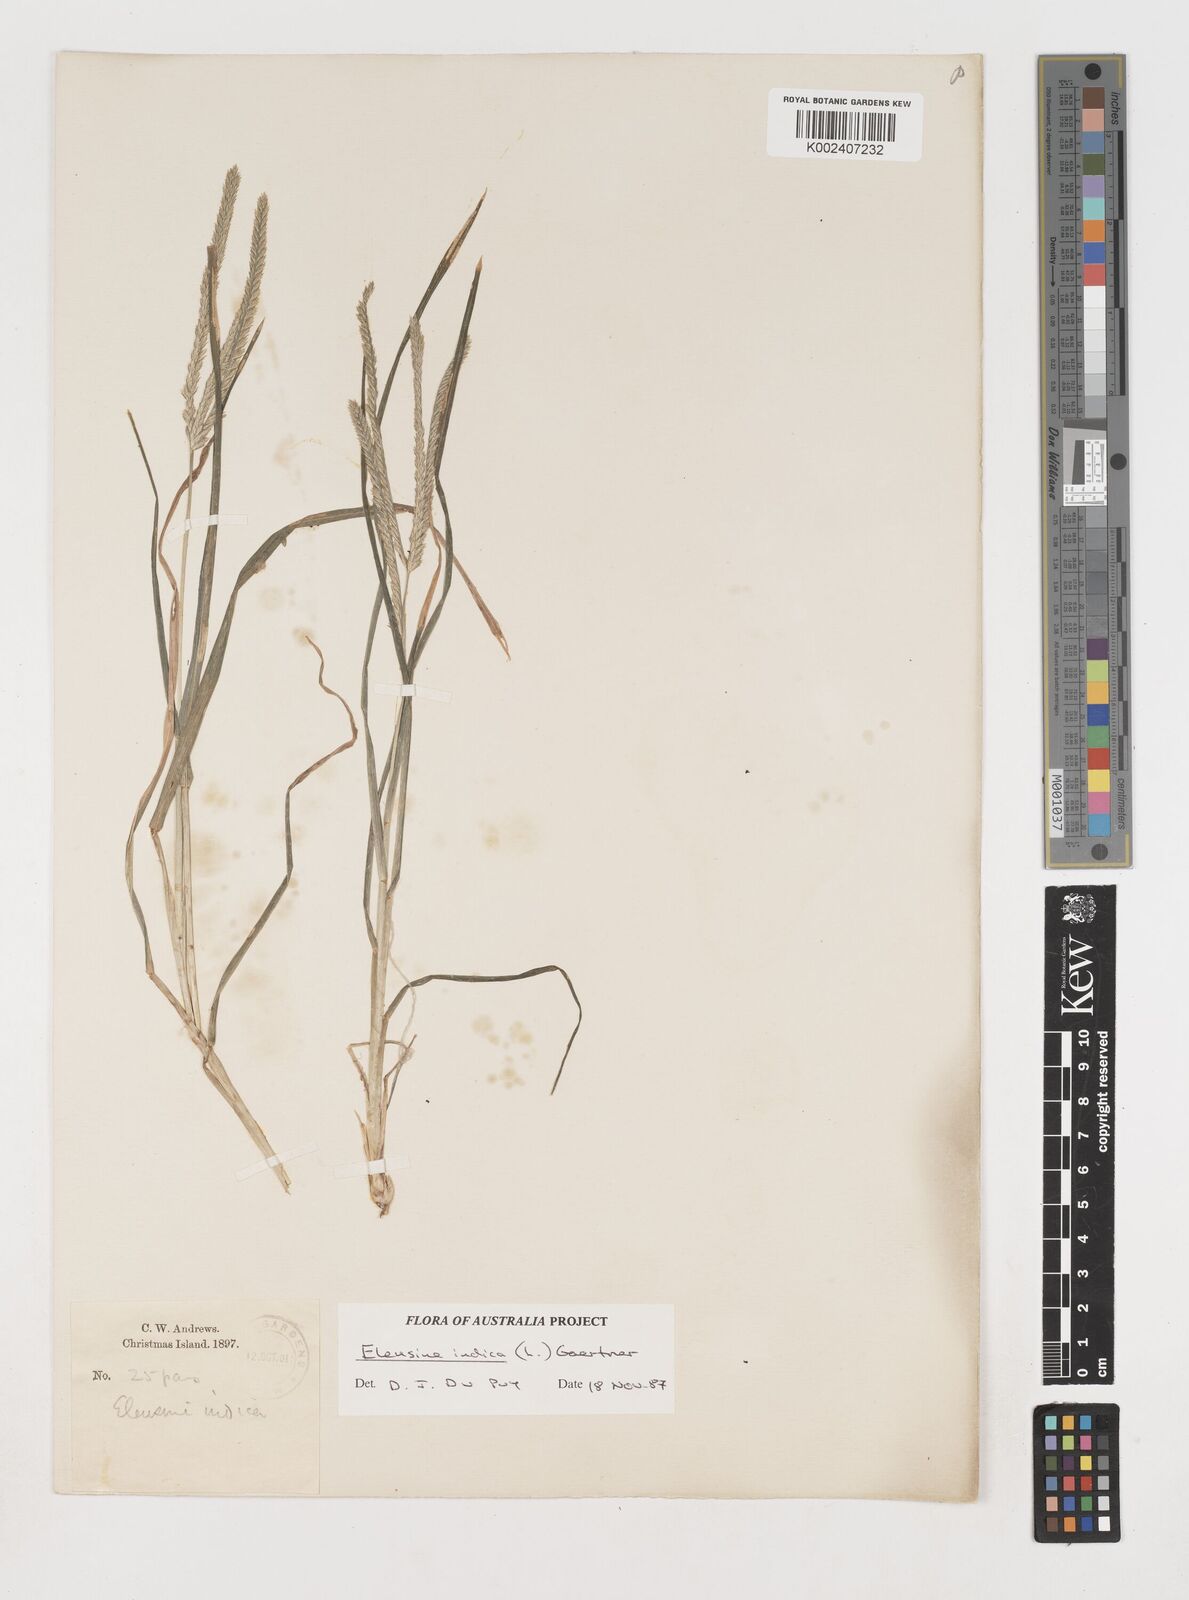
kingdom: Plantae
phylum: Tracheophyta
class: Liliopsida
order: Poales
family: Poaceae
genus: Eleusine
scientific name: Eleusine indica
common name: Yard-grass
